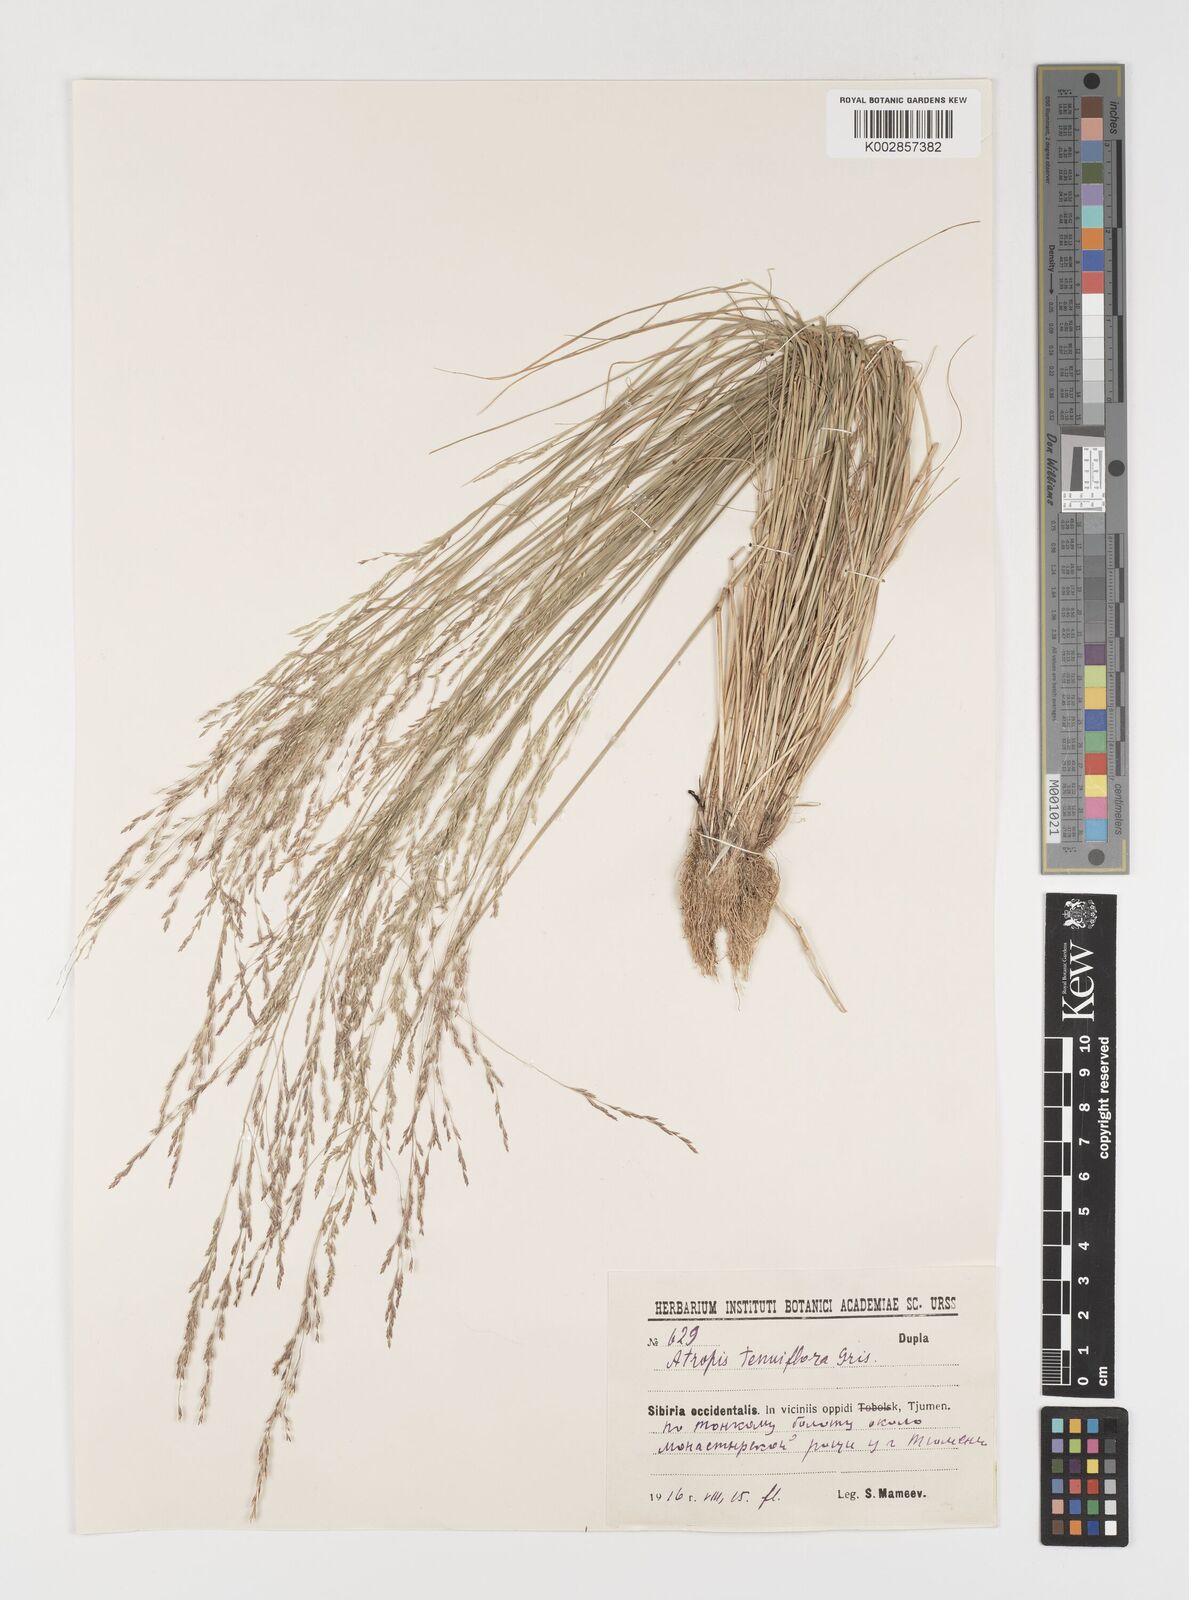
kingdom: Plantae
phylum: Tracheophyta
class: Liliopsida
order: Poales
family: Poaceae
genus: Puccinellia
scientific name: Puccinellia tenuiflora
